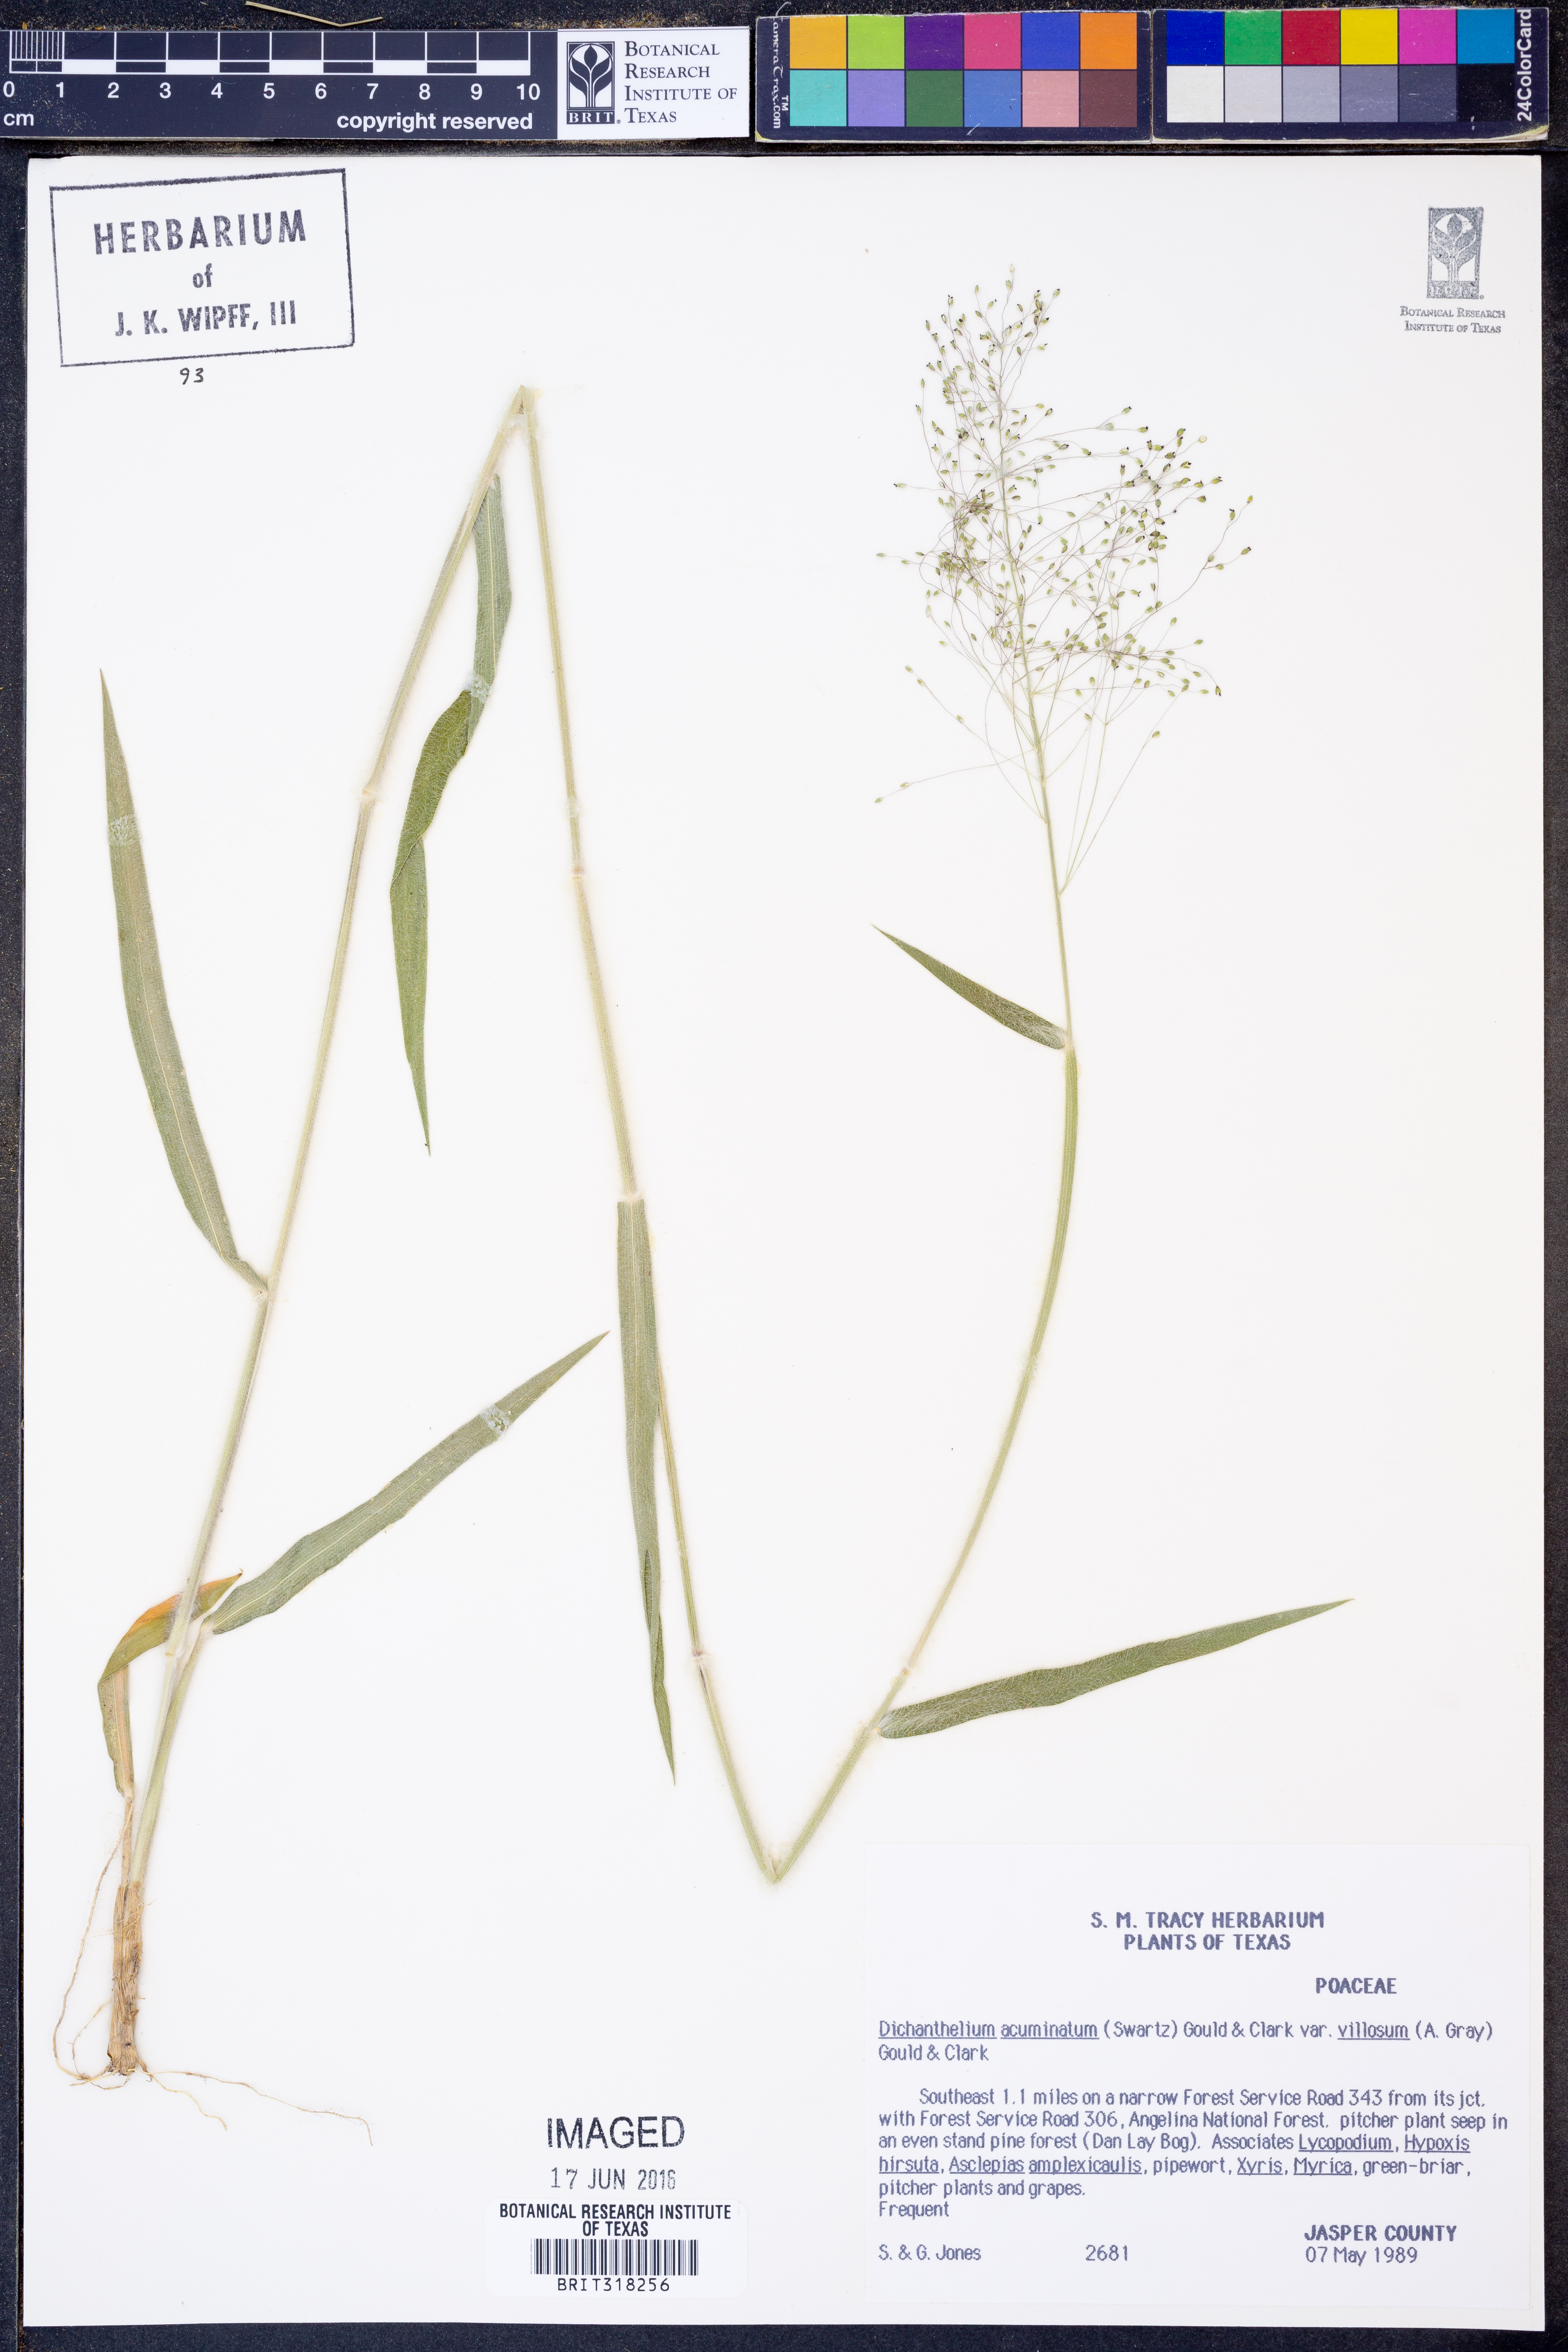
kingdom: Plantae
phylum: Tracheophyta
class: Liliopsida
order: Poales
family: Poaceae
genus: Dichanthelium
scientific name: Dichanthelium villosissimum
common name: White-haired panicgrass
